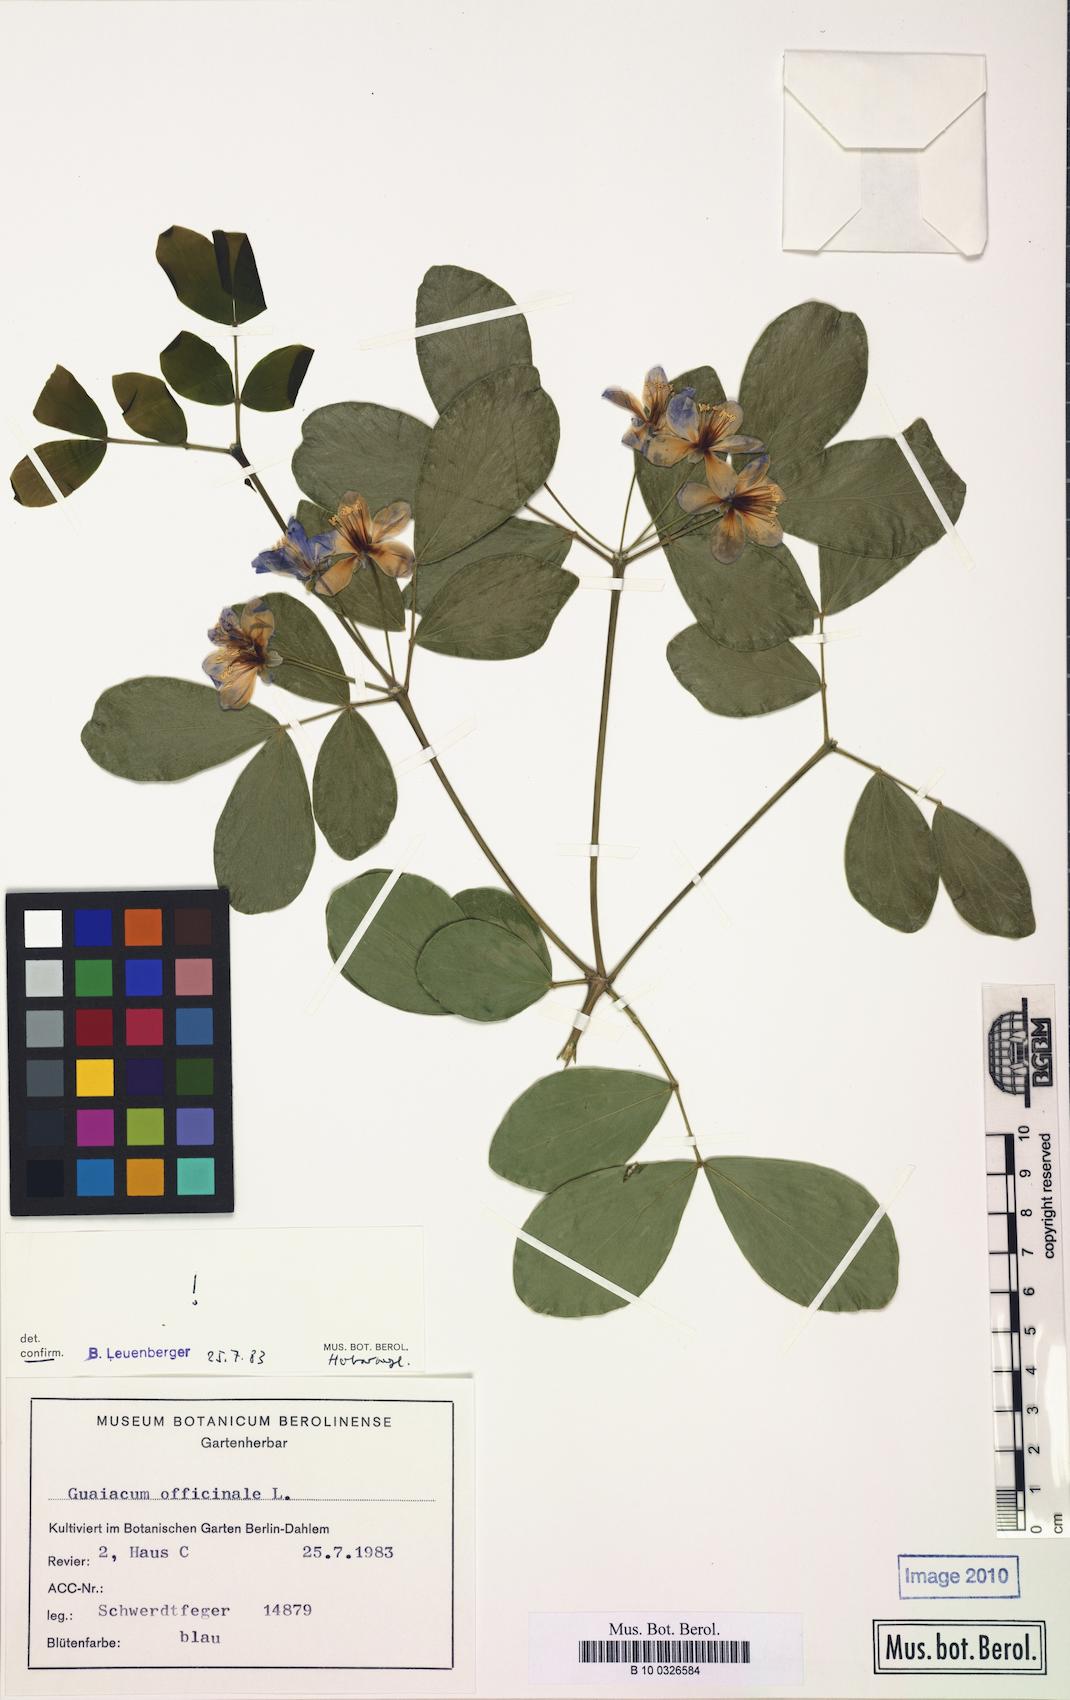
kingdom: Plantae
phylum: Tracheophyta
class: Magnoliopsida
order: Zygophyllales
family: Zygophyllaceae
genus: Guaiacum
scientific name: Guaiacum officinale
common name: Lignum vitae
